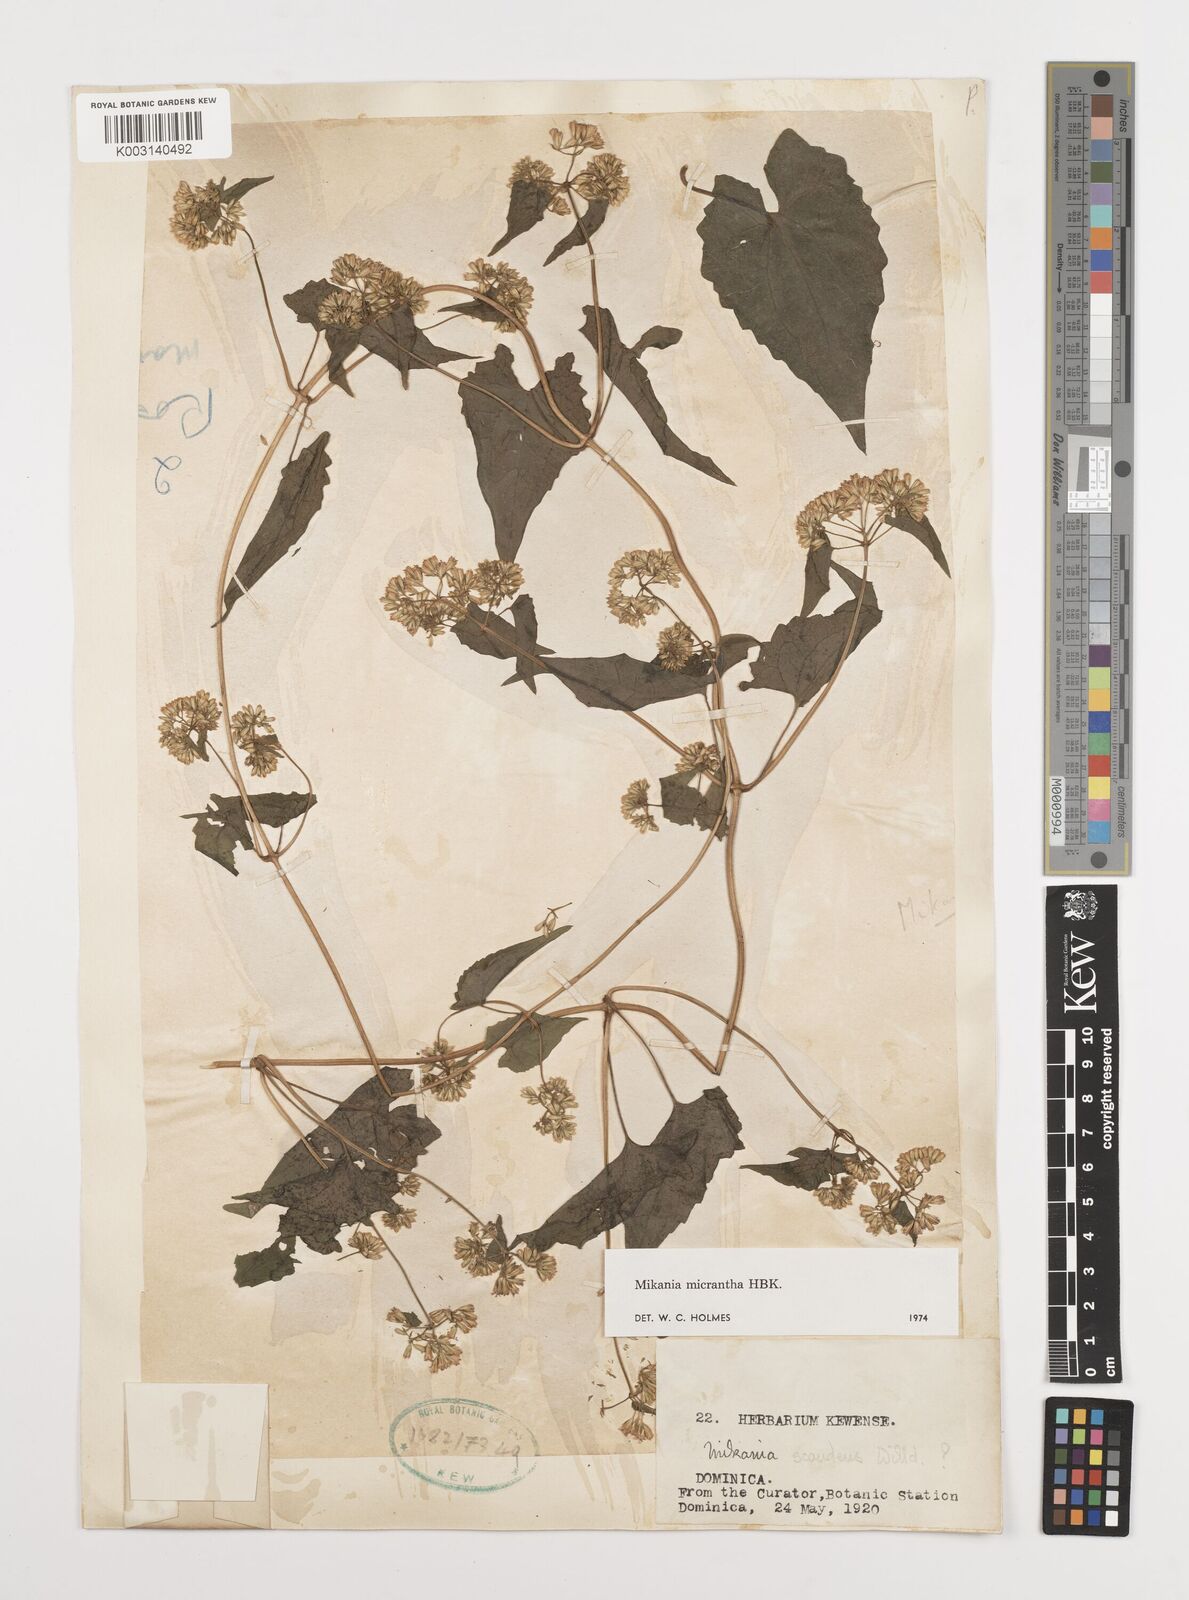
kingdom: Plantae
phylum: Tracheophyta
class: Magnoliopsida
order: Asterales
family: Asteraceae
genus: Mikania
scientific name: Mikania micrantha
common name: Mile-a-minute
